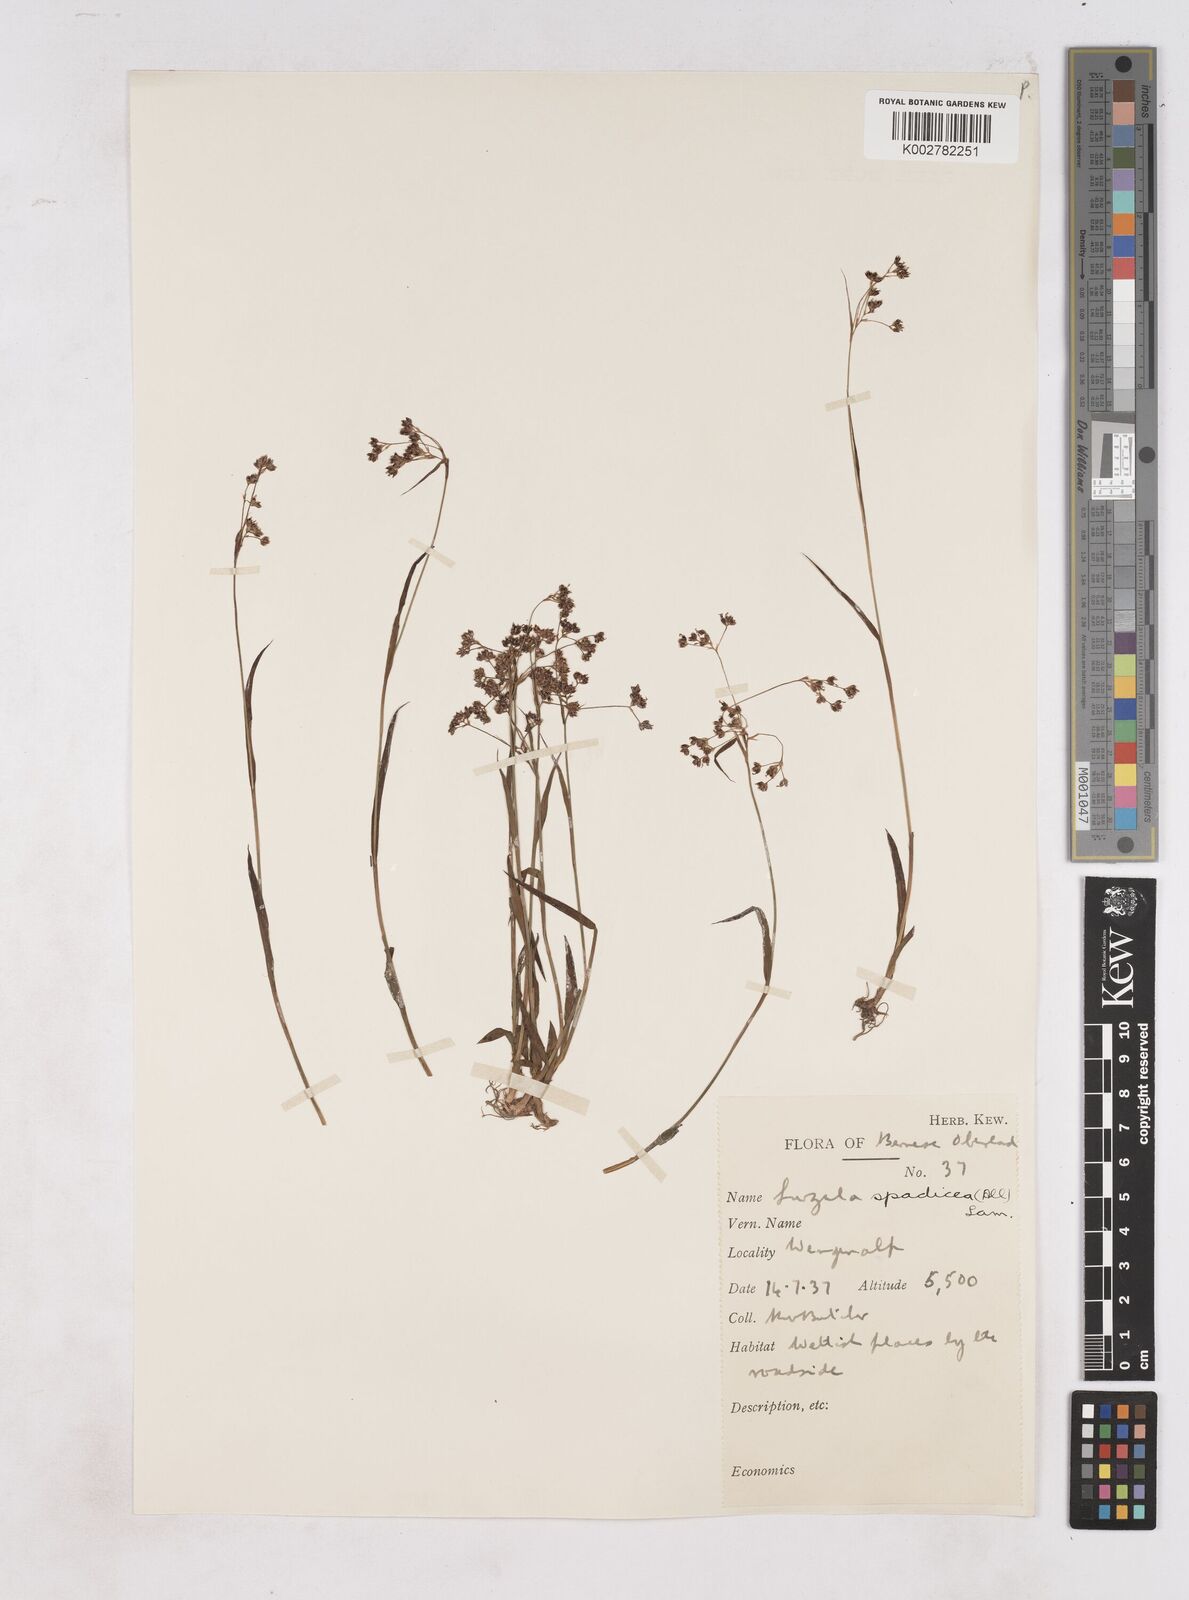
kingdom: Plantae
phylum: Tracheophyta
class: Liliopsida
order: Poales
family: Juncaceae
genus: Luzula
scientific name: Luzula alpinopilosa
